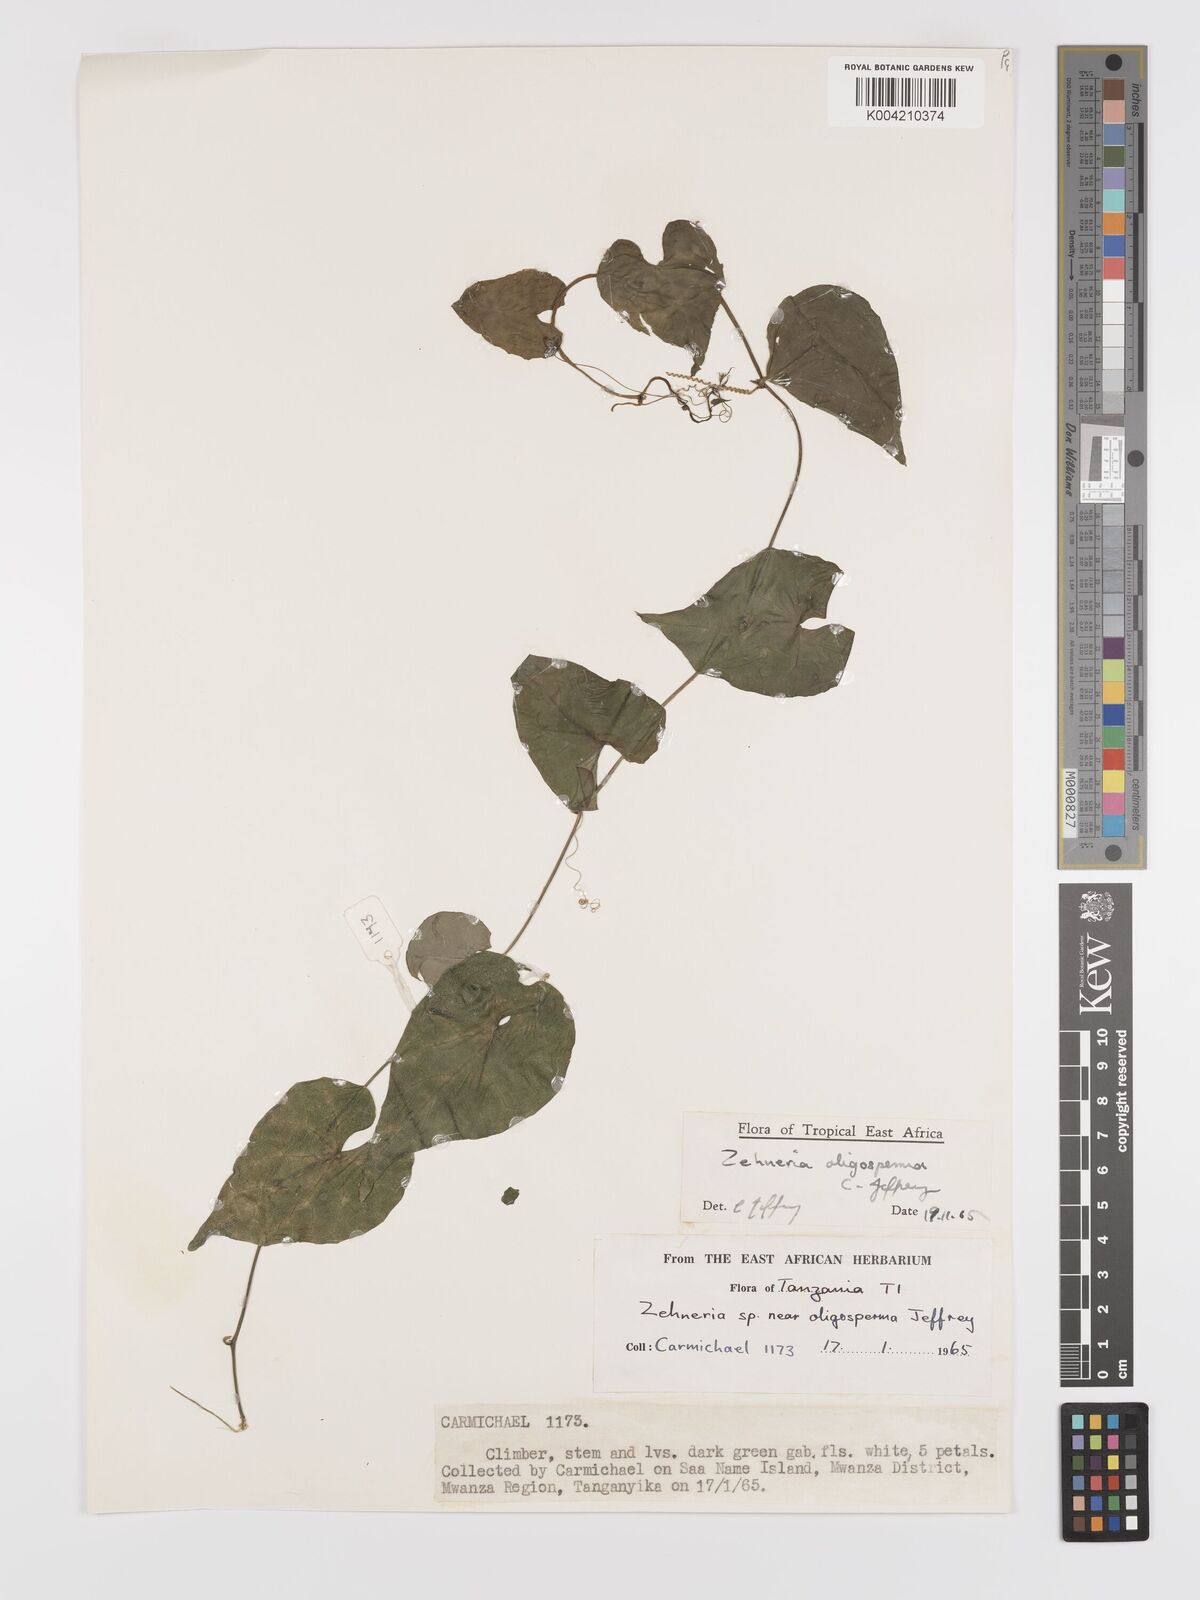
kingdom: Plantae
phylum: Tracheophyta
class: Magnoliopsida
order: Cucurbitales
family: Cucurbitaceae
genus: Zehneria
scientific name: Zehneria oligosperma
